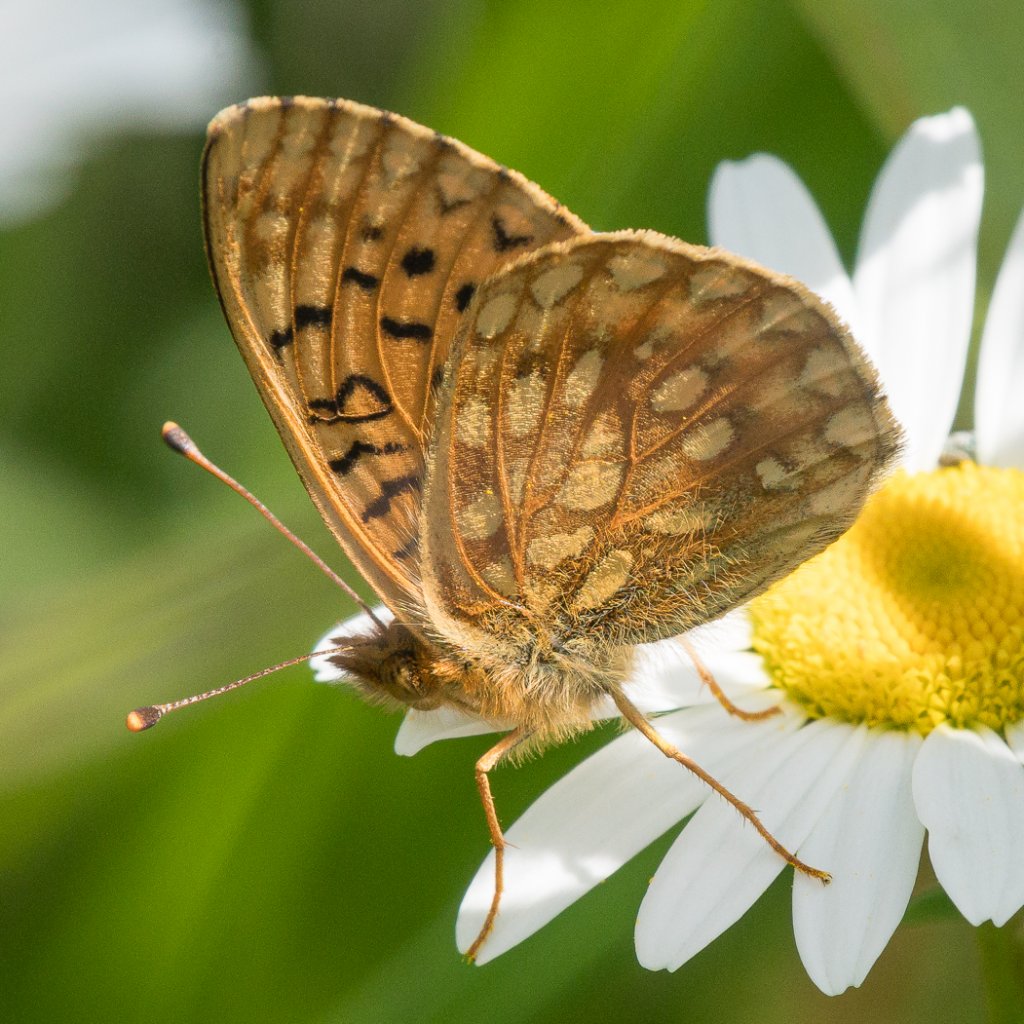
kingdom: Animalia
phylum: Arthropoda
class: Insecta
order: Lepidoptera
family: Nymphalidae
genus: Speyeria
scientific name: Speyeria mormonia
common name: Mormon Fritillary
